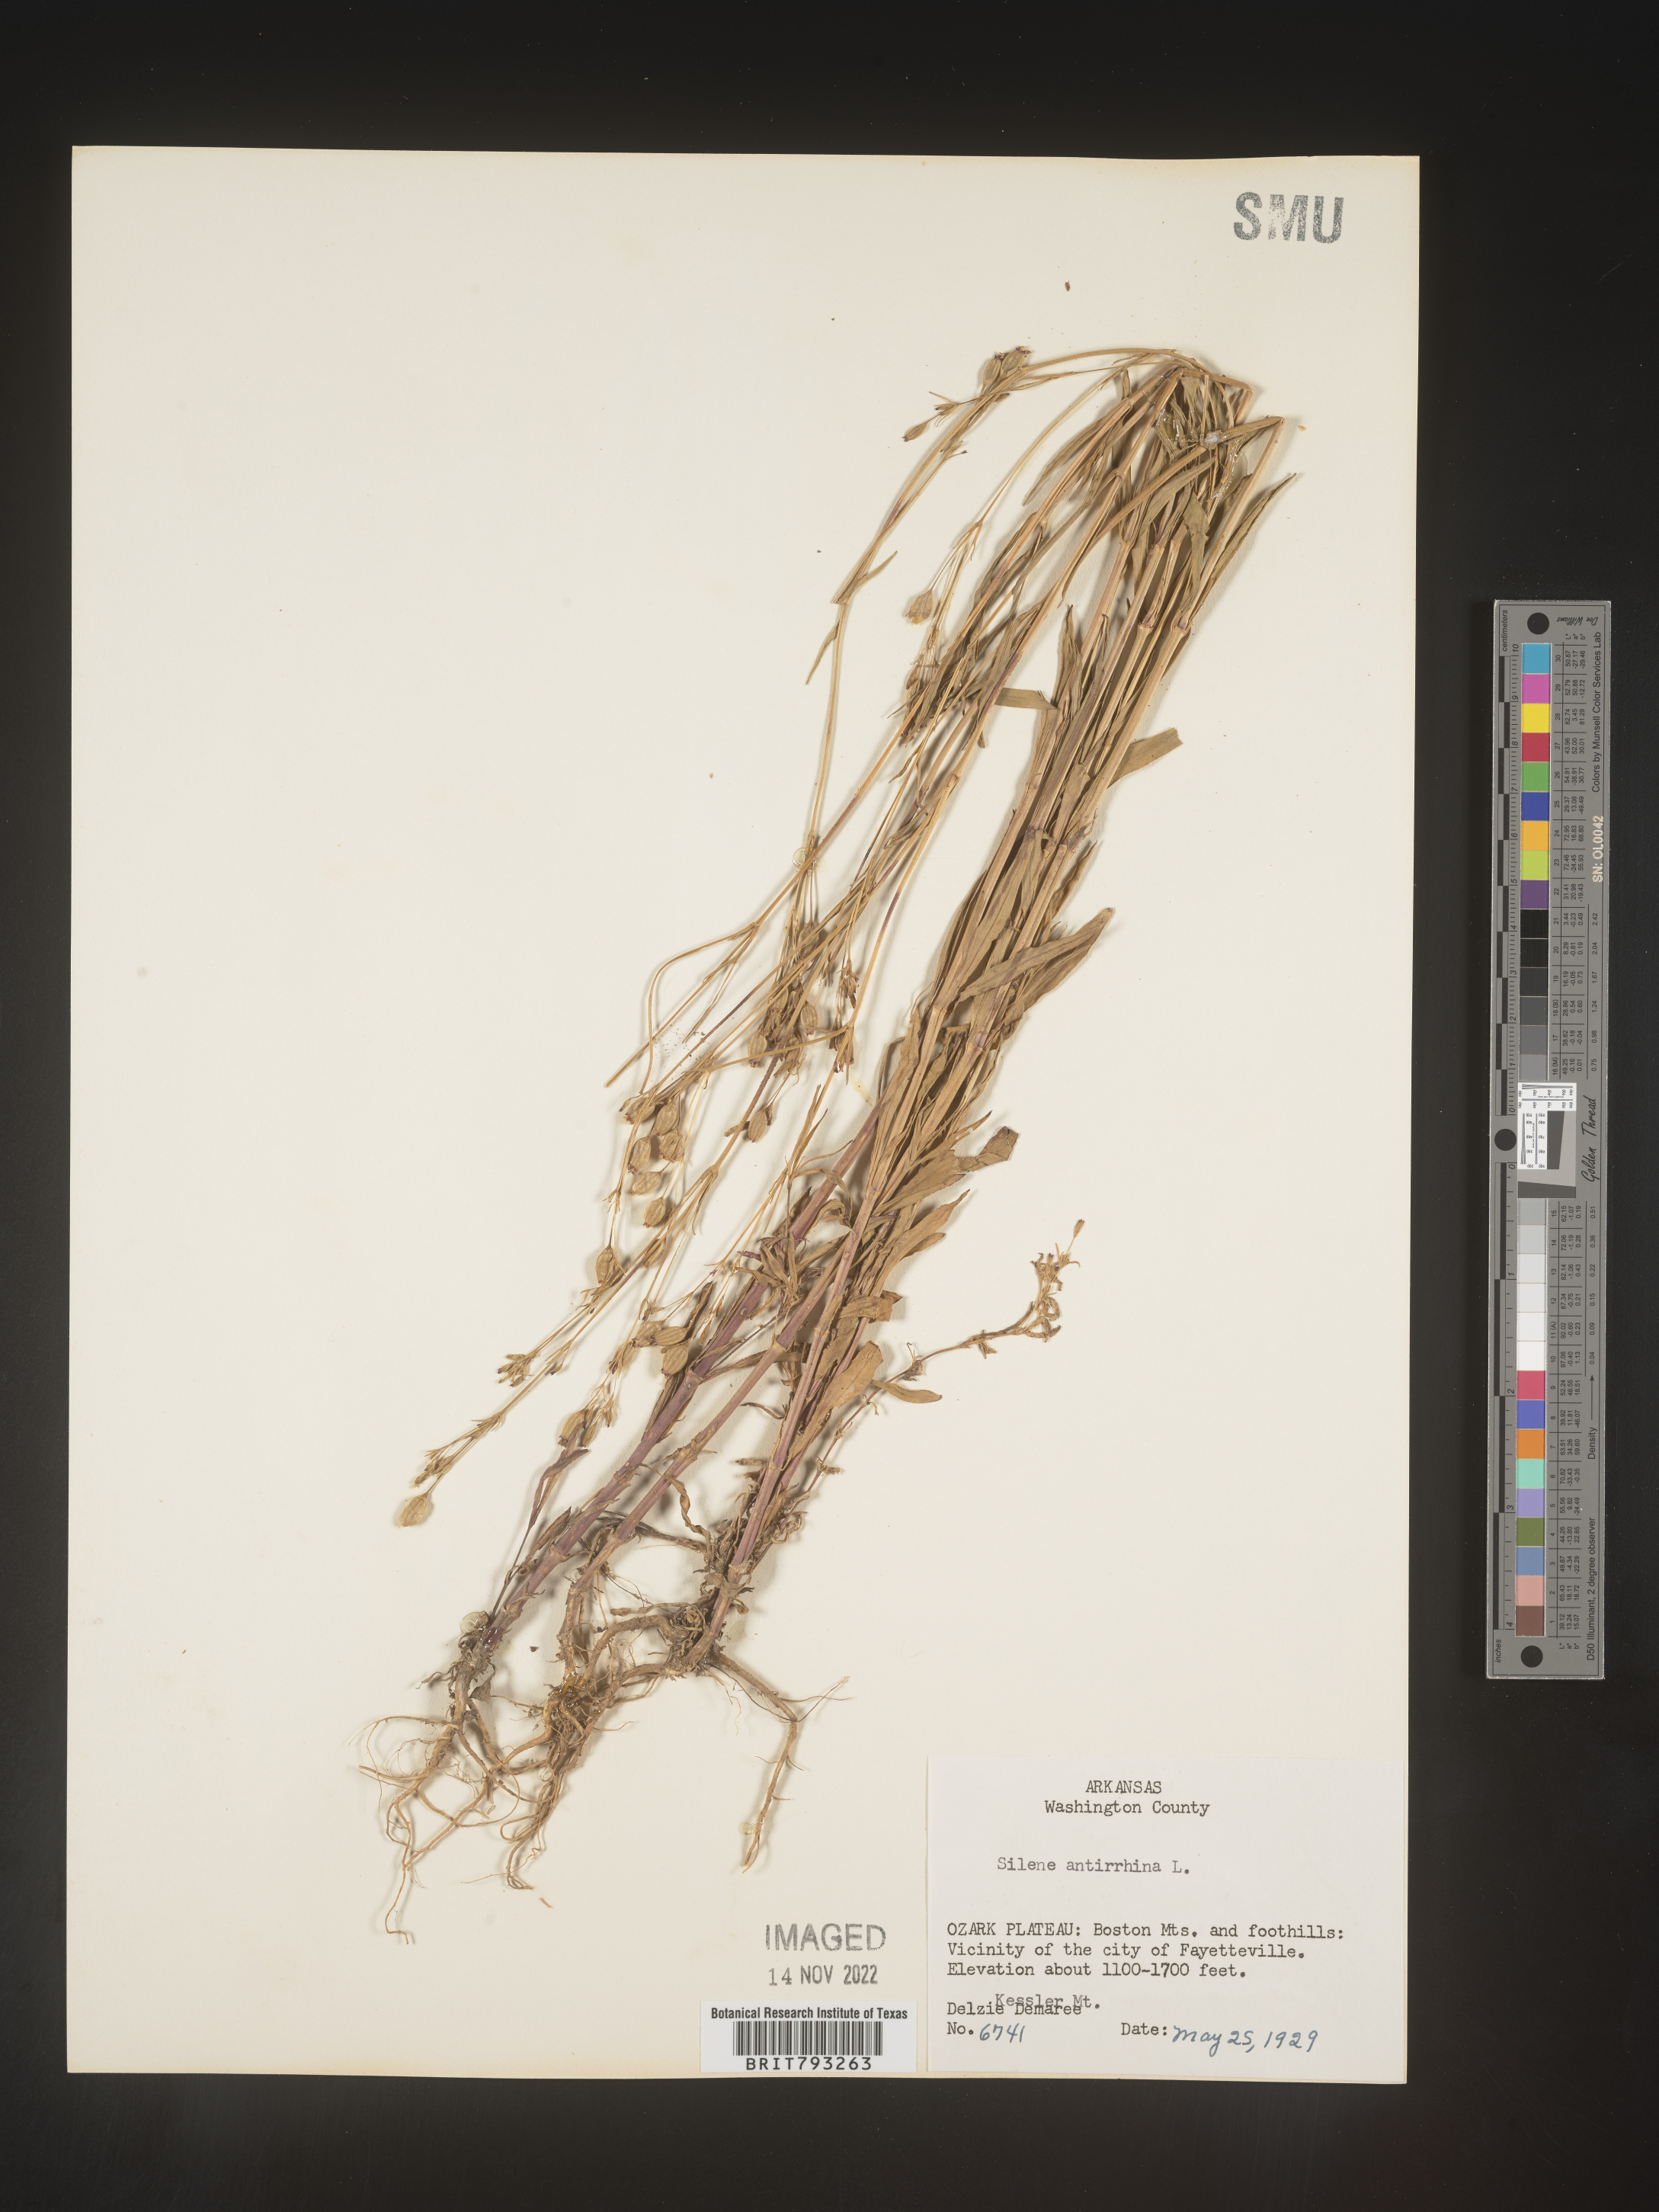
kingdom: Plantae
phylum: Tracheophyta
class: Magnoliopsida
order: Caryophyllales
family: Caryophyllaceae
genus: Silene
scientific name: Silene antirrhina
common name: Sleepy catchfly
